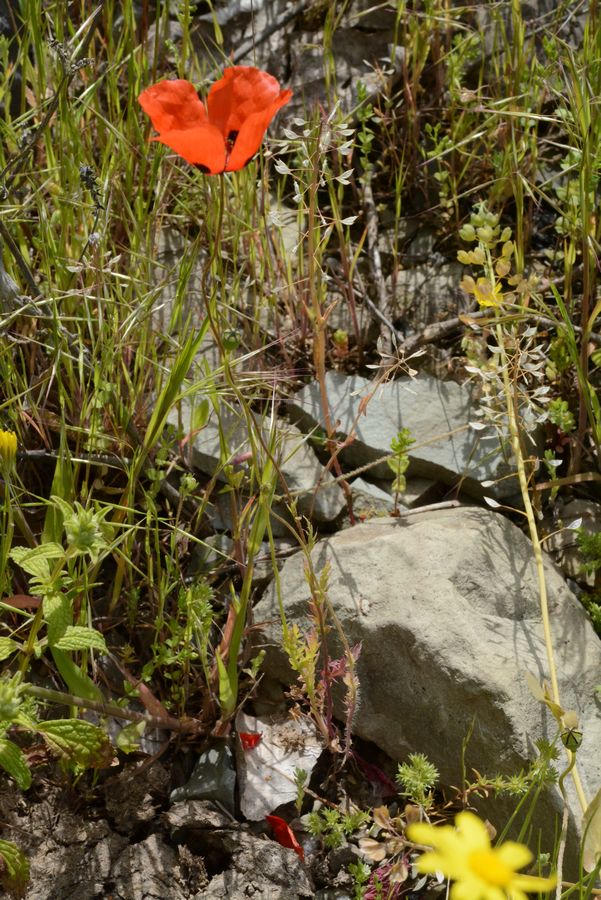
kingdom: Plantae
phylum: Tracheophyta
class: Magnoliopsida
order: Ranunculales
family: Papaveraceae
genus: Papaver
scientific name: Papaver dubium
